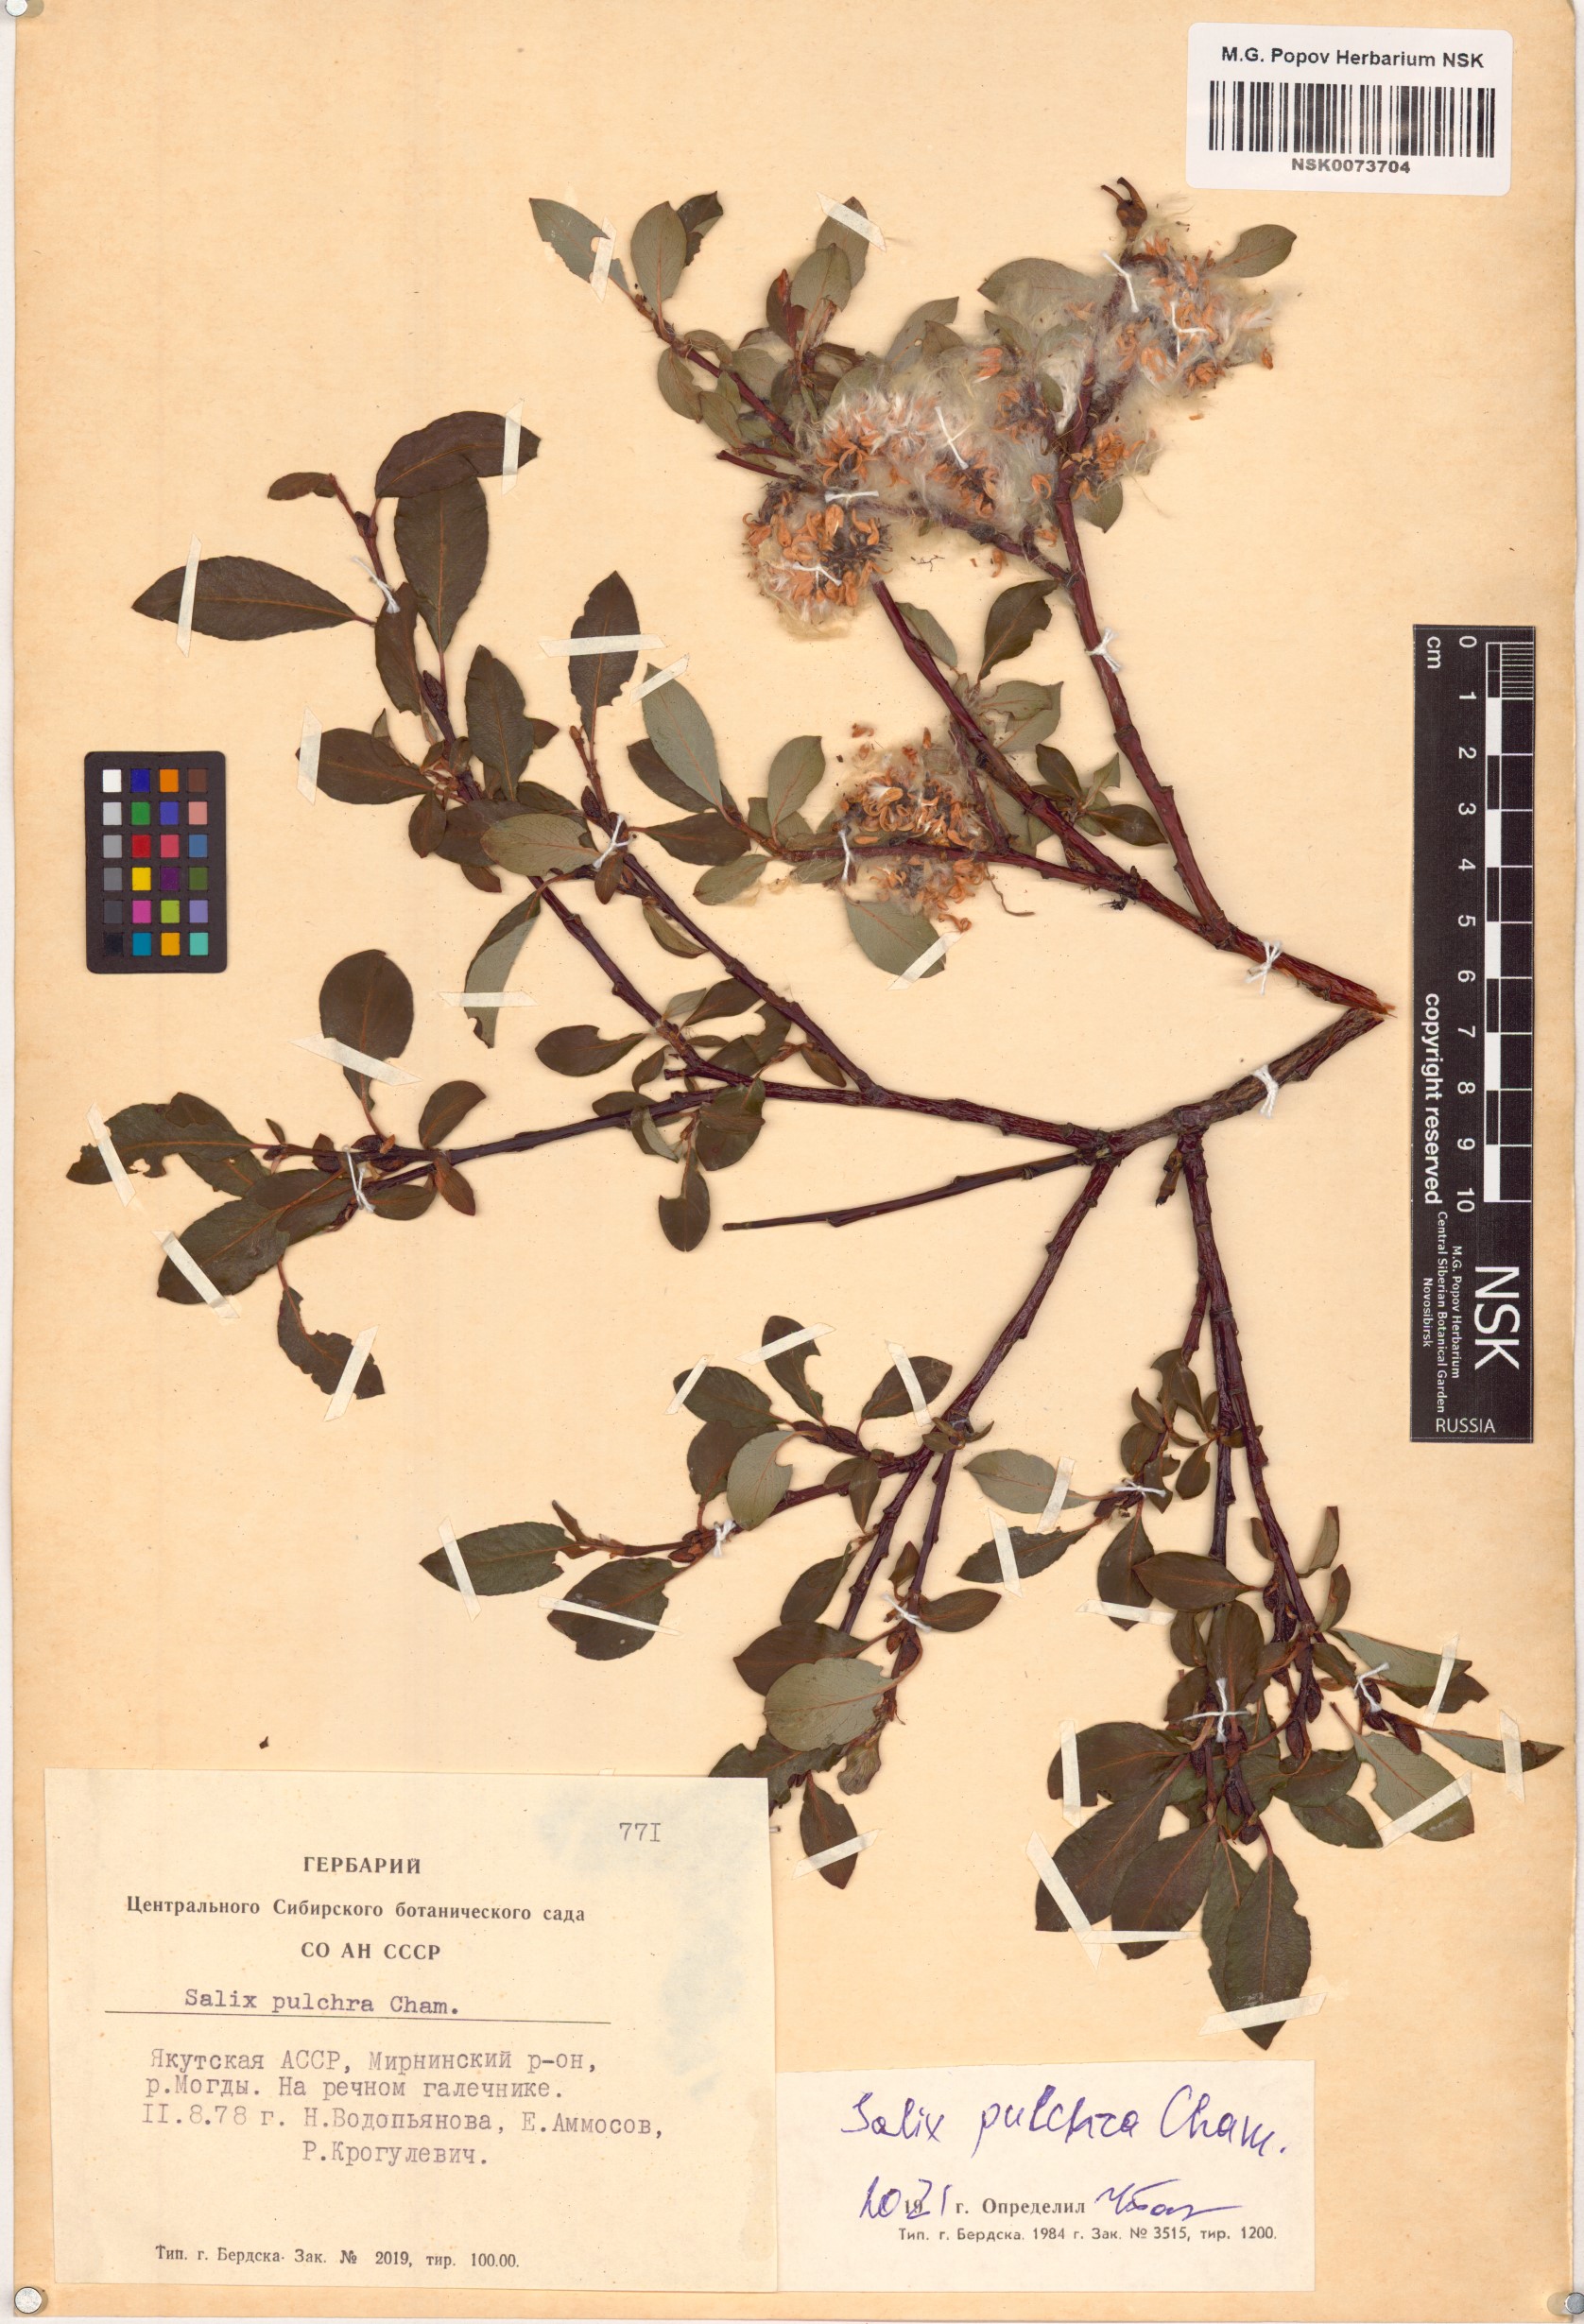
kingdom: Plantae
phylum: Tracheophyta
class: Magnoliopsida
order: Malpighiales
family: Salicaceae
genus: Salix
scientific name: Salix pulchra
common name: Diamond-leaved willow
